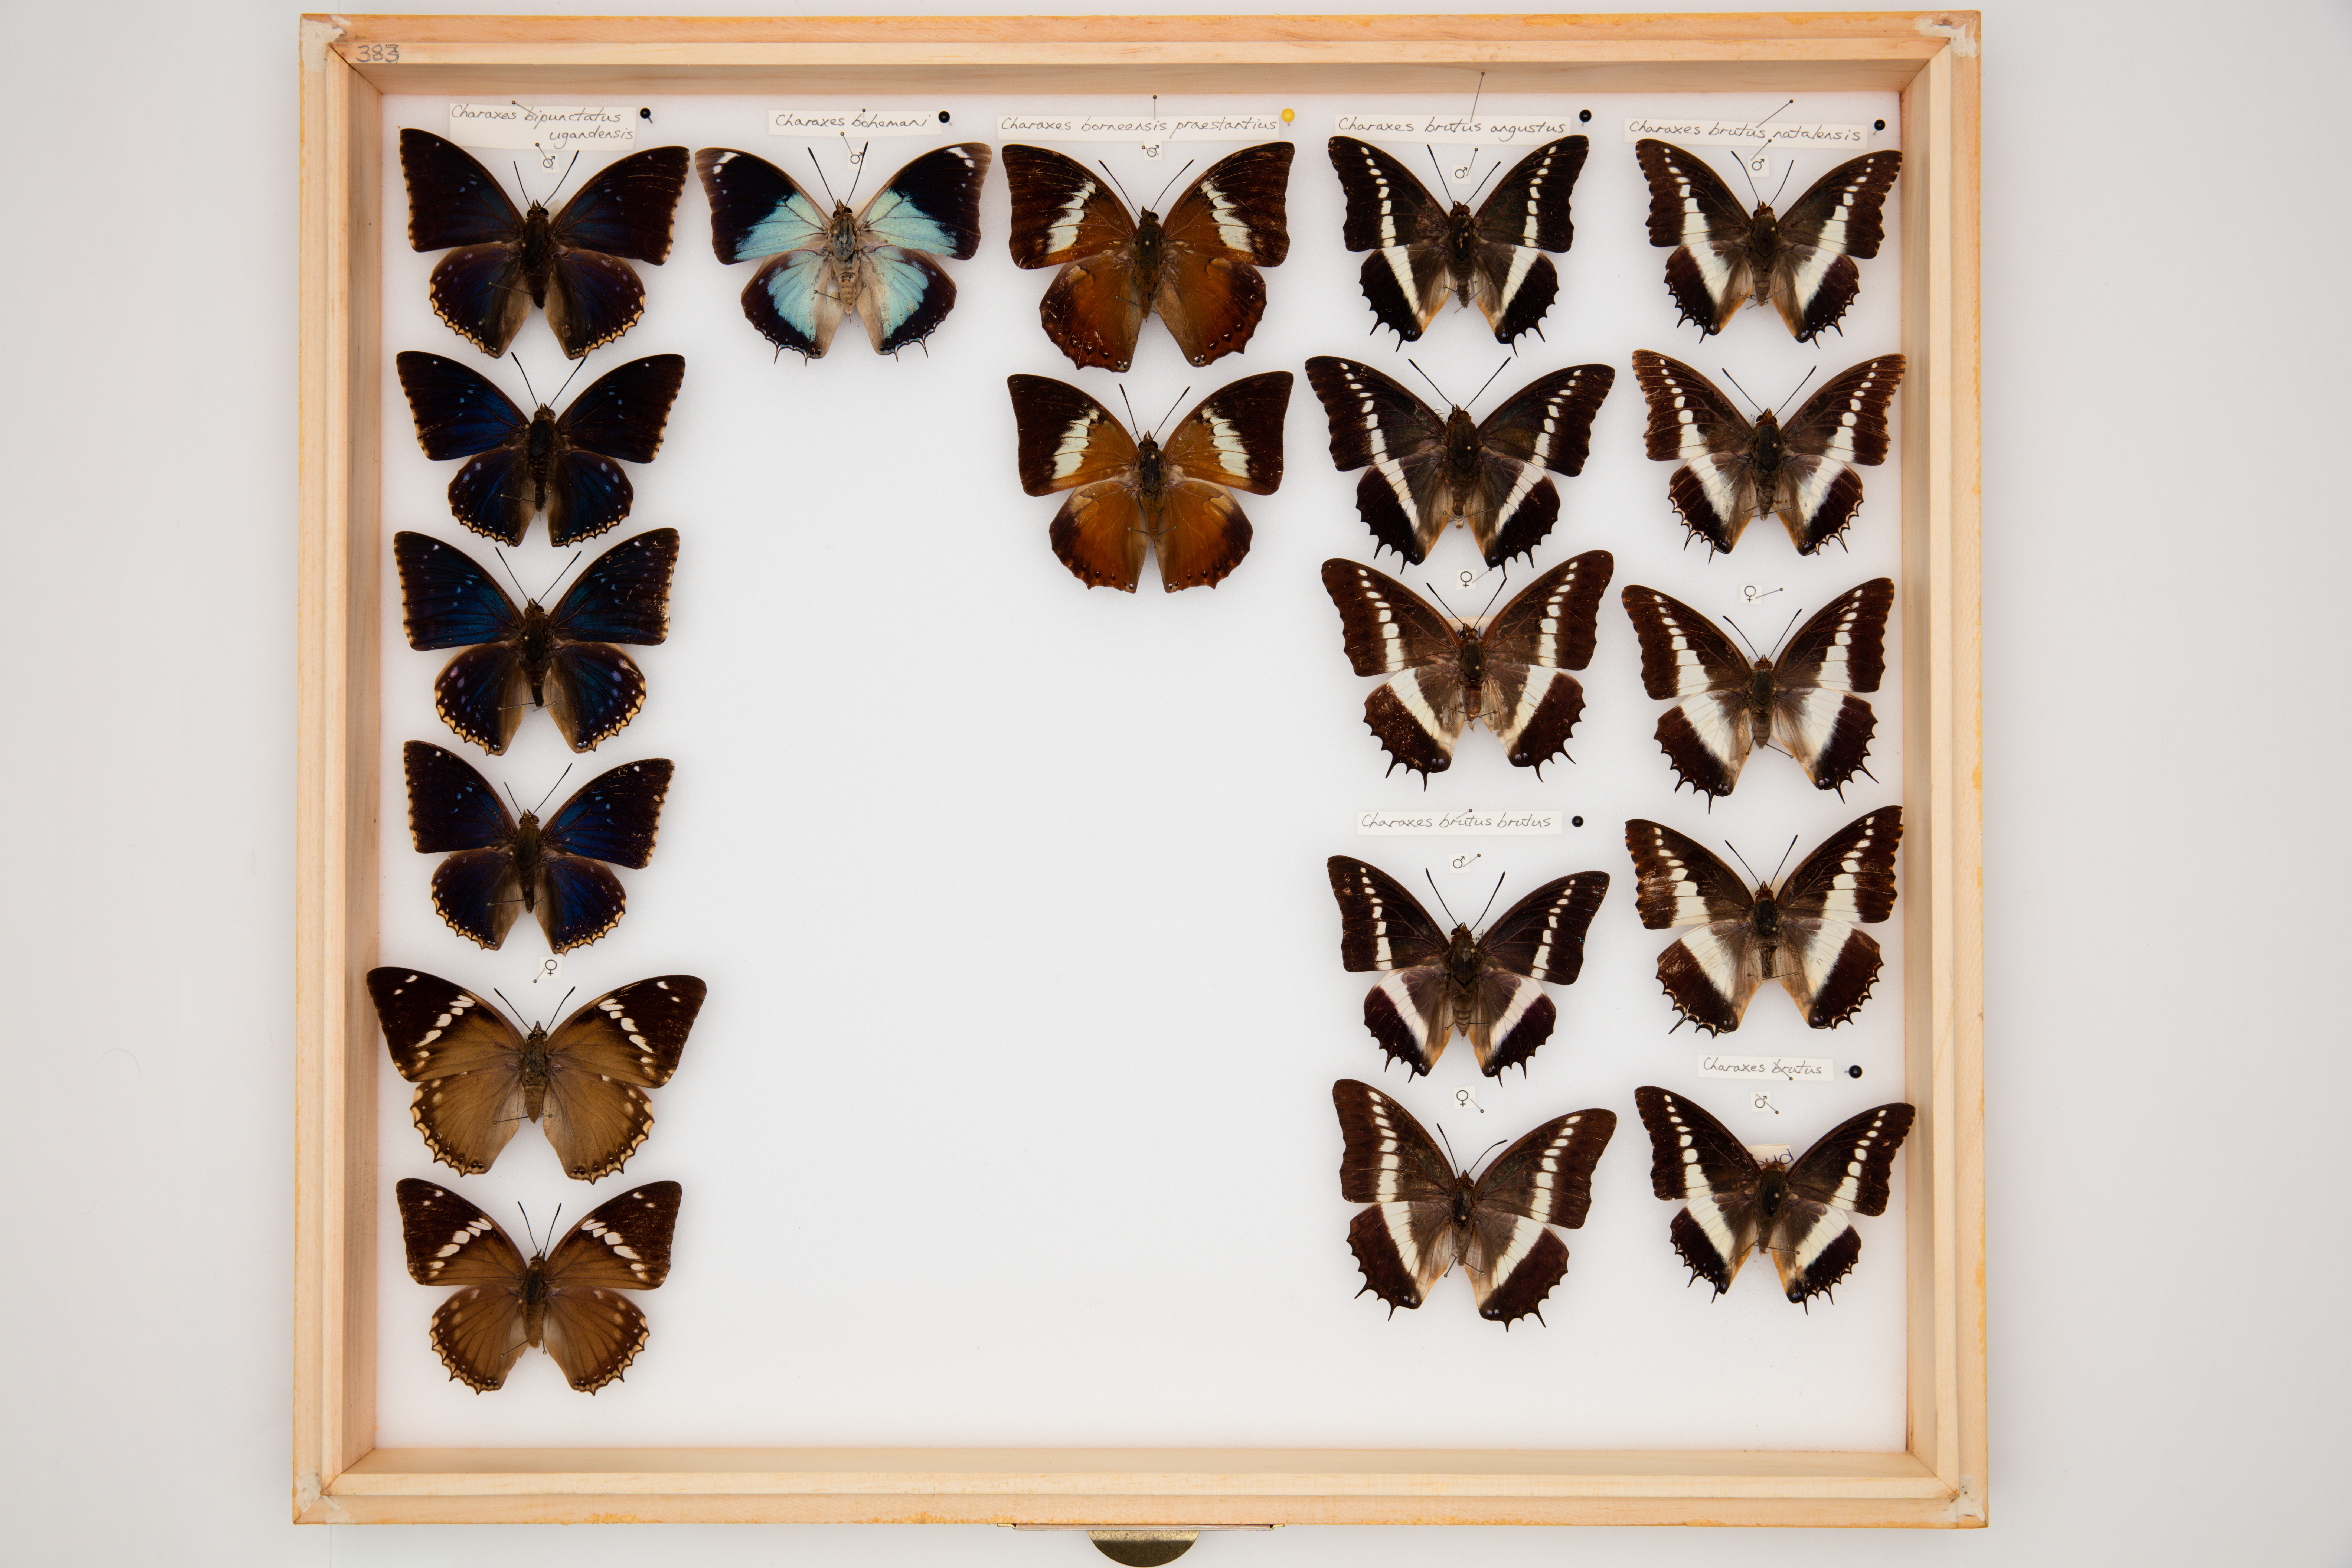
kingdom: Animalia
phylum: Arthropoda
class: Insecta
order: Lepidoptera
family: Nymphalidae
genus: Charaxes
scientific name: Charaxes borneensis
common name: White-banded rajah
